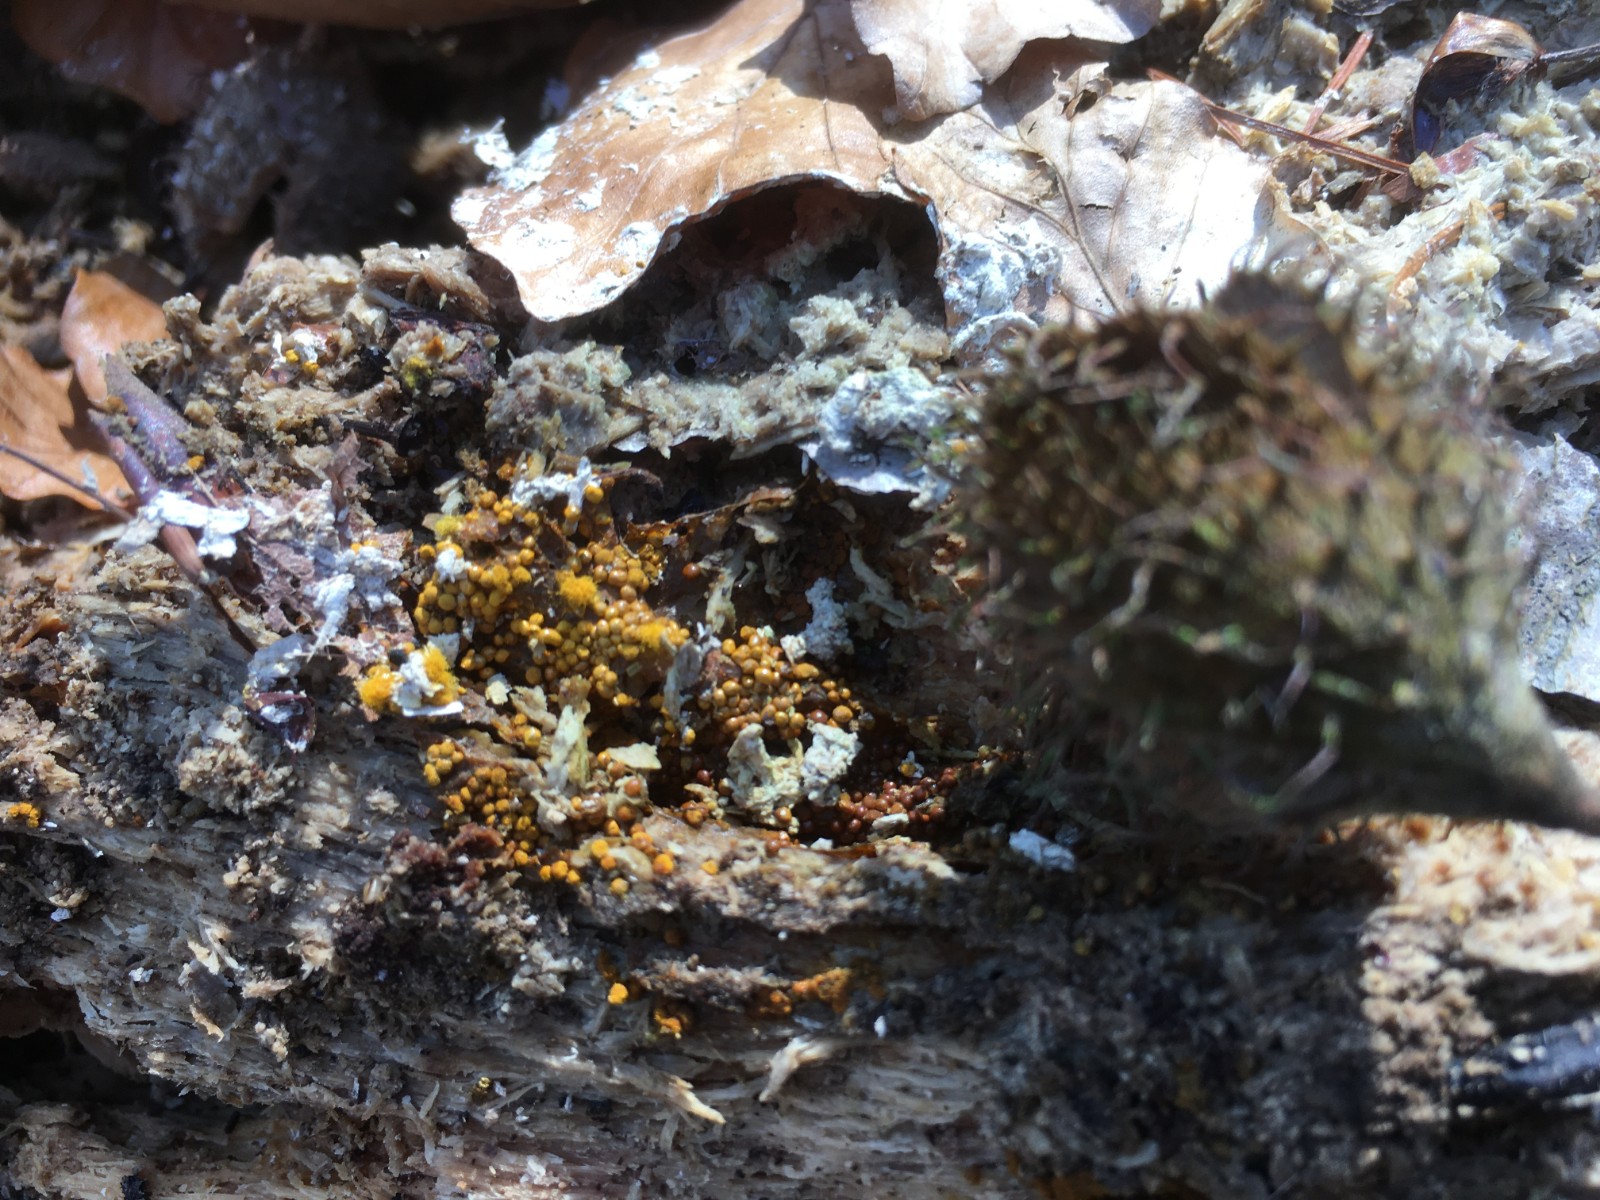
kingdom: Protozoa
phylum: Mycetozoa
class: Myxomycetes
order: Trichiales
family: Trichiaceae
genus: Trichia
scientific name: Trichia scabra
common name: tæppe-hårbold
